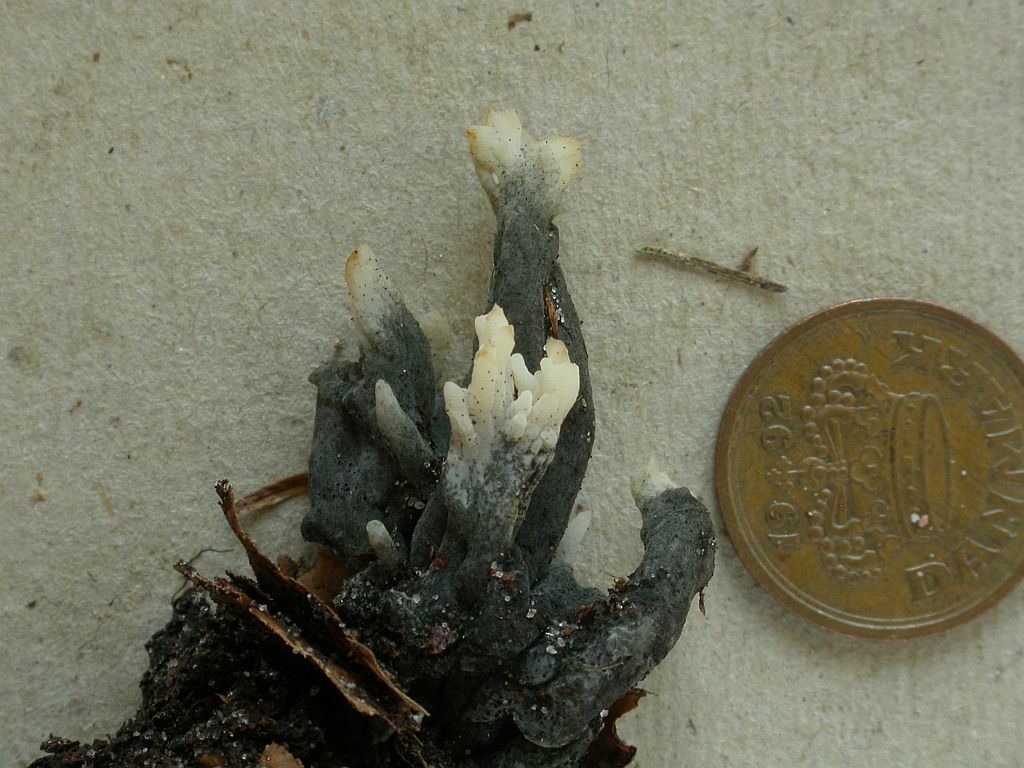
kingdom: Fungi
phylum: Ascomycota
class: Sordariomycetes
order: Sordariales
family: Helminthosphaeriaceae
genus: Helminthosphaeria
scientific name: Helminthosphaeria clavariarum
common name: trold-svampesnyltekerne
